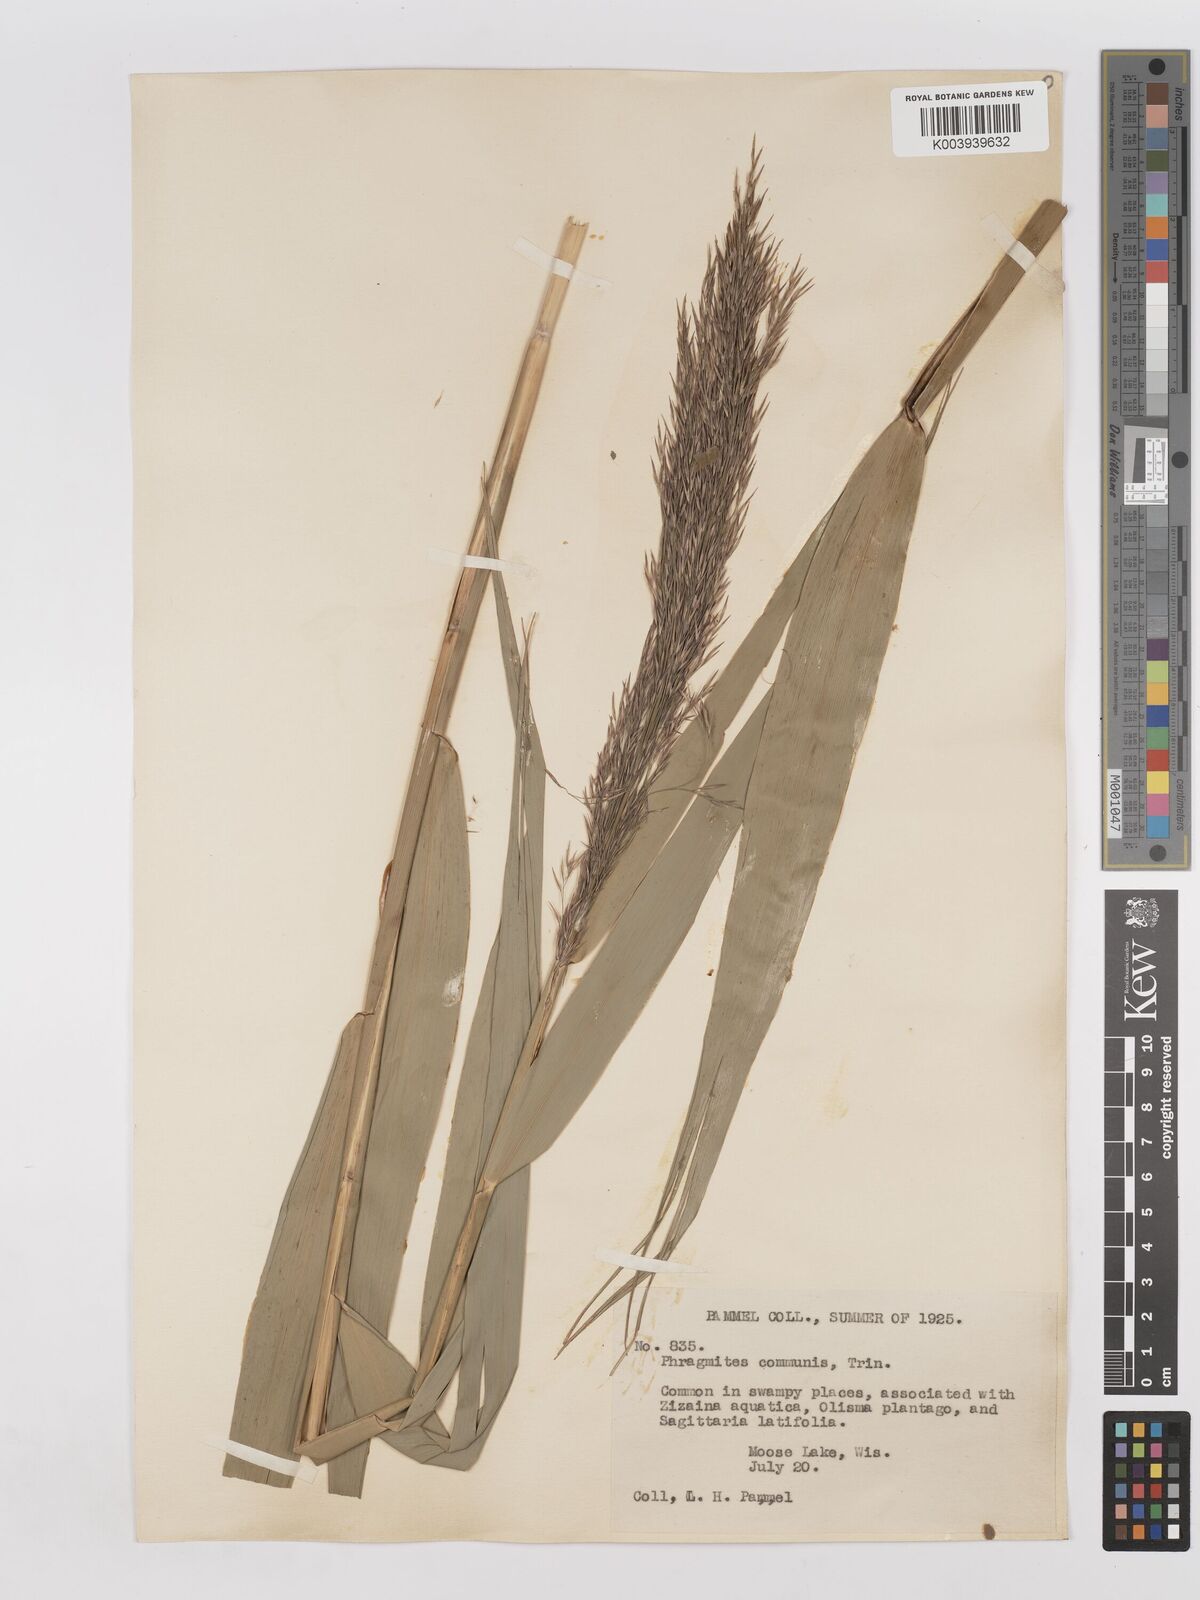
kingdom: Plantae
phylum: Tracheophyta
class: Liliopsida
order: Poales
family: Poaceae
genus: Phragmites
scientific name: Phragmites australis
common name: Common reed
